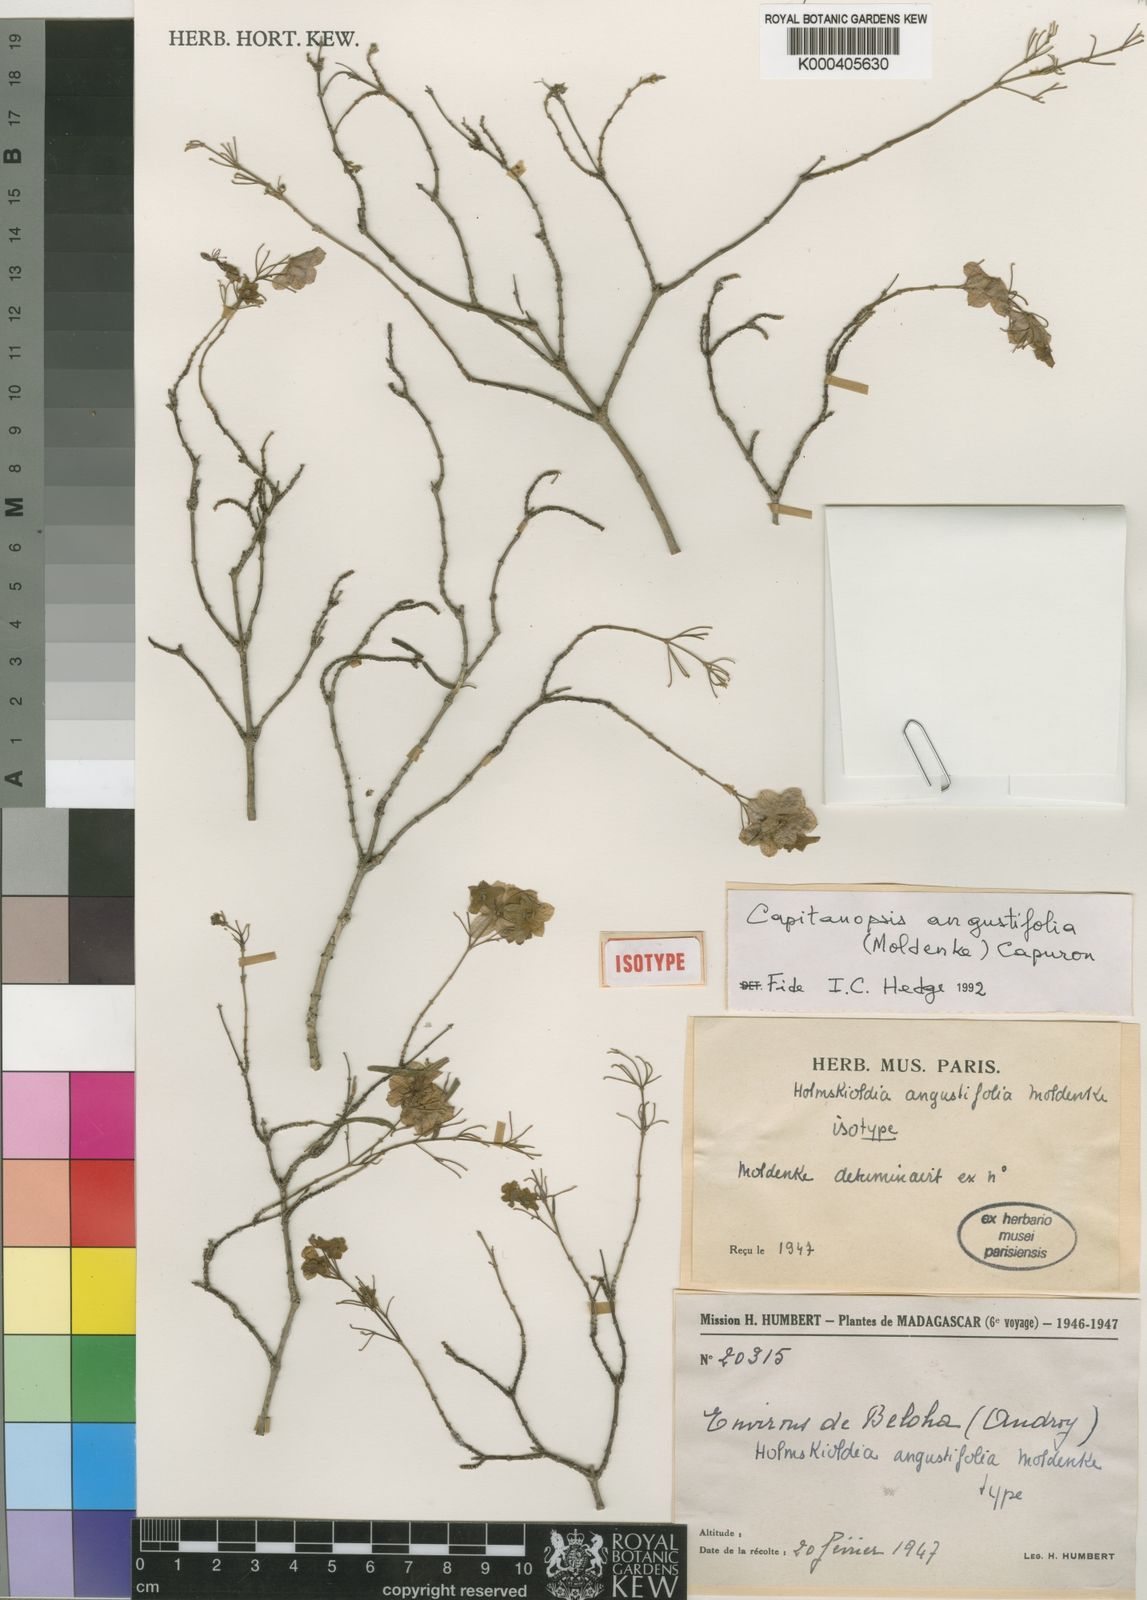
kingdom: Plantae
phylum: Tracheophyta
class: Magnoliopsida
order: Lamiales
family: Lamiaceae
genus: Capitanopsis
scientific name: Capitanopsis angustifolia
